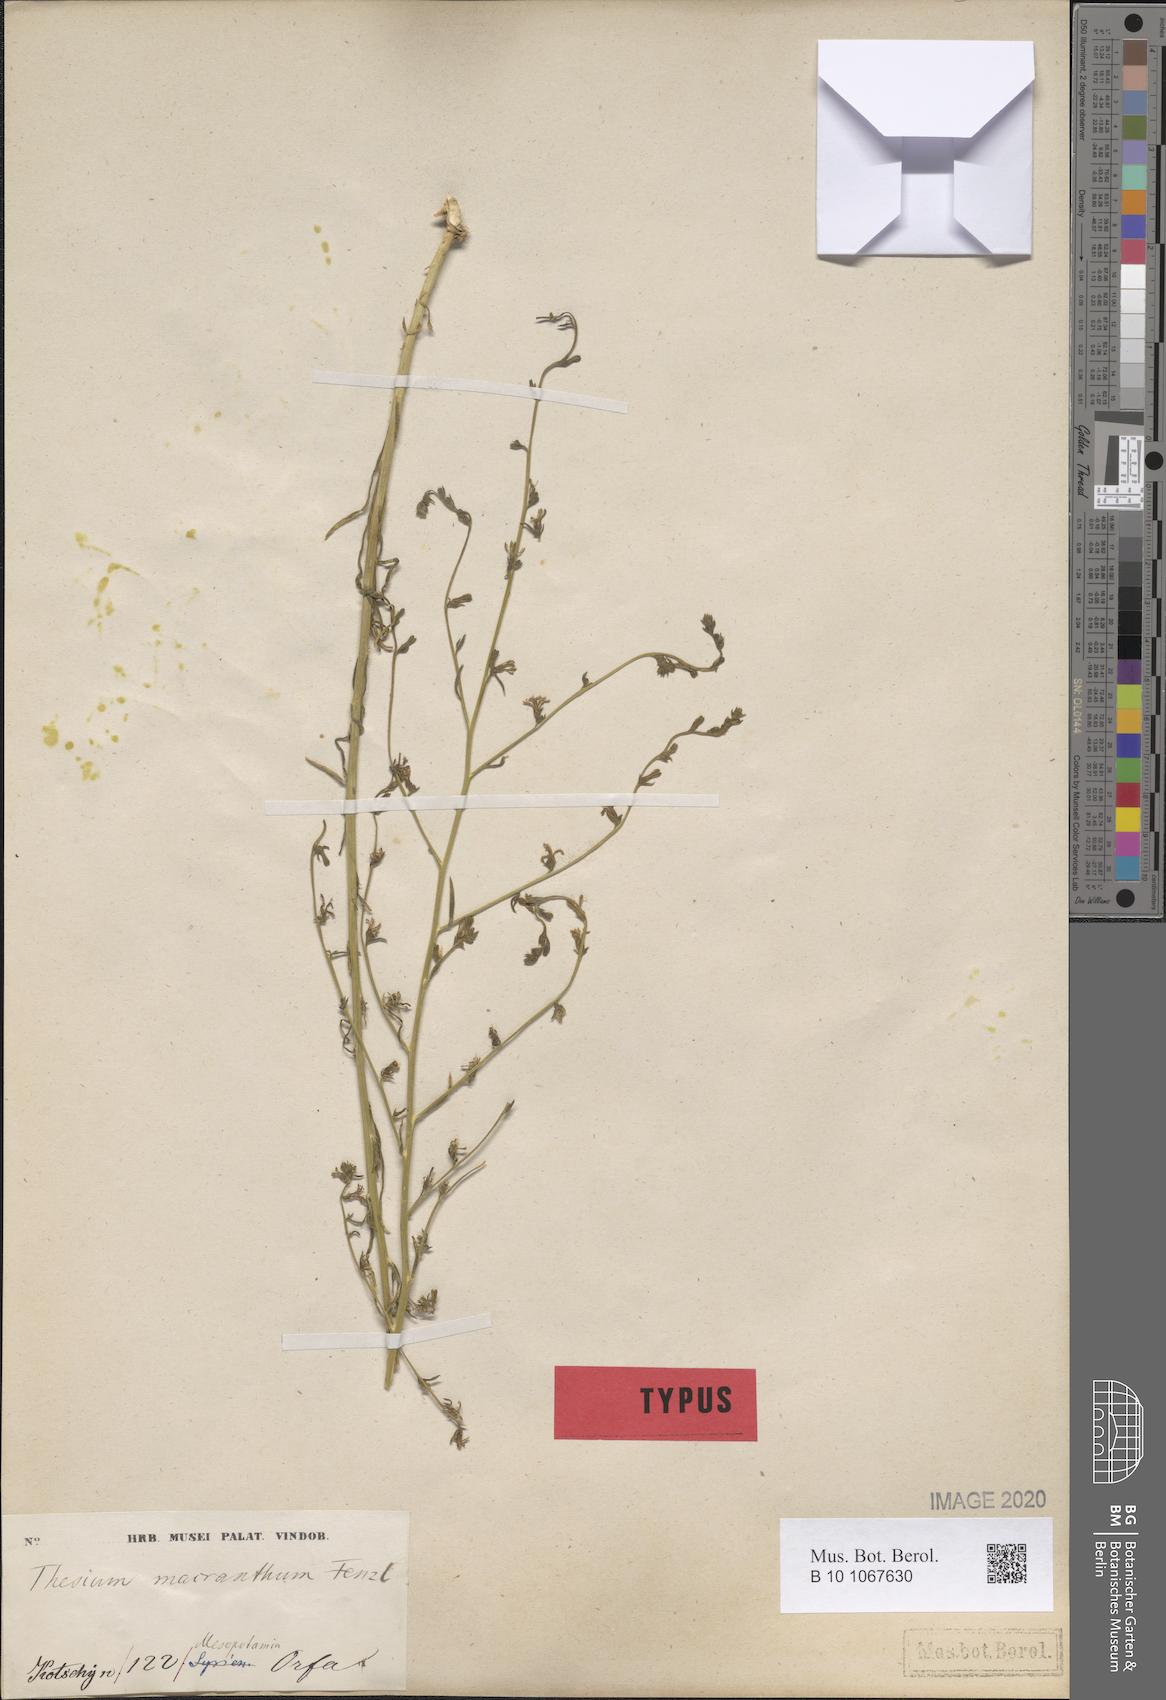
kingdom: Plantae
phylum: Tracheophyta
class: Magnoliopsida
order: Santalales
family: Thesiaceae
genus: Thesium
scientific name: Thesium macranthum
